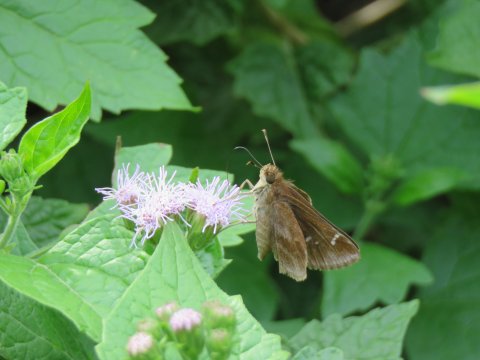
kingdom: Animalia
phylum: Arthropoda
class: Insecta
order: Lepidoptera
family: Hesperiidae
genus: Lerema
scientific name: Lerema accius
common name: Clouded Skipper
